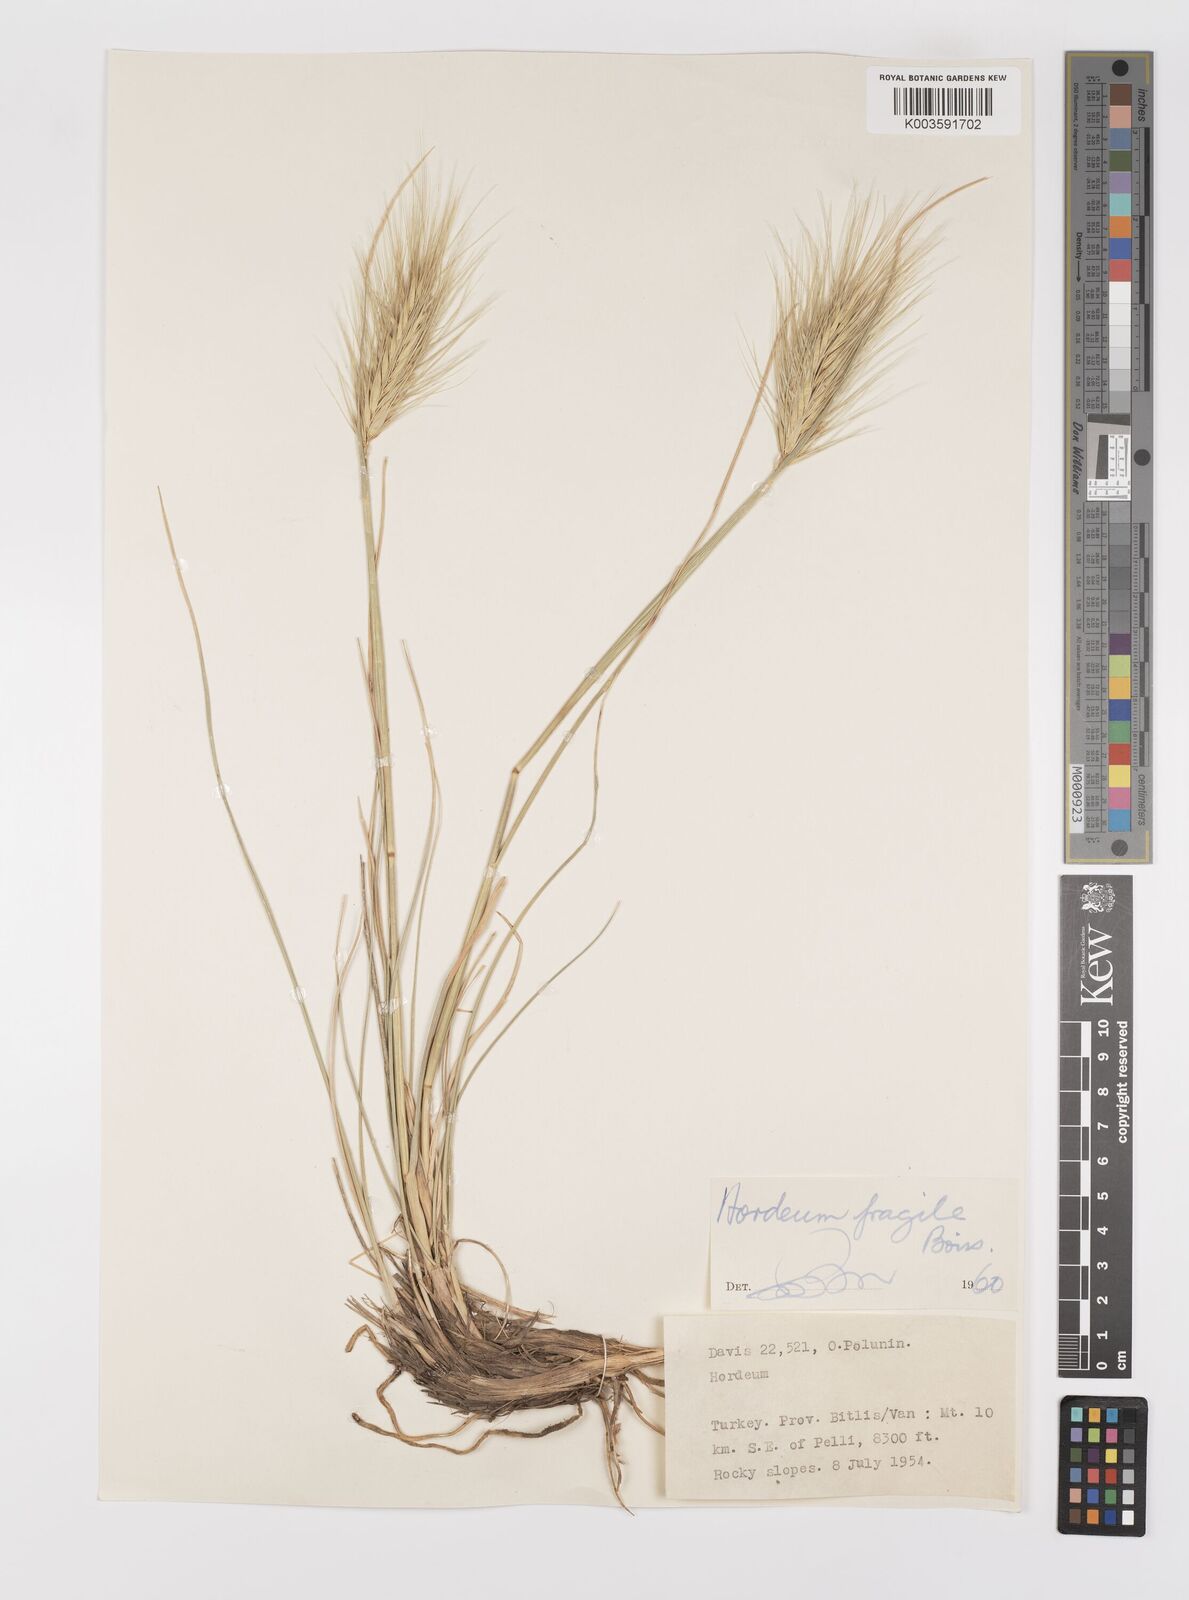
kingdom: Plantae
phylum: Tracheophyta
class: Liliopsida
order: Poales
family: Poaceae
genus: Psathyrostachys
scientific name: Psathyrostachys fragilis
